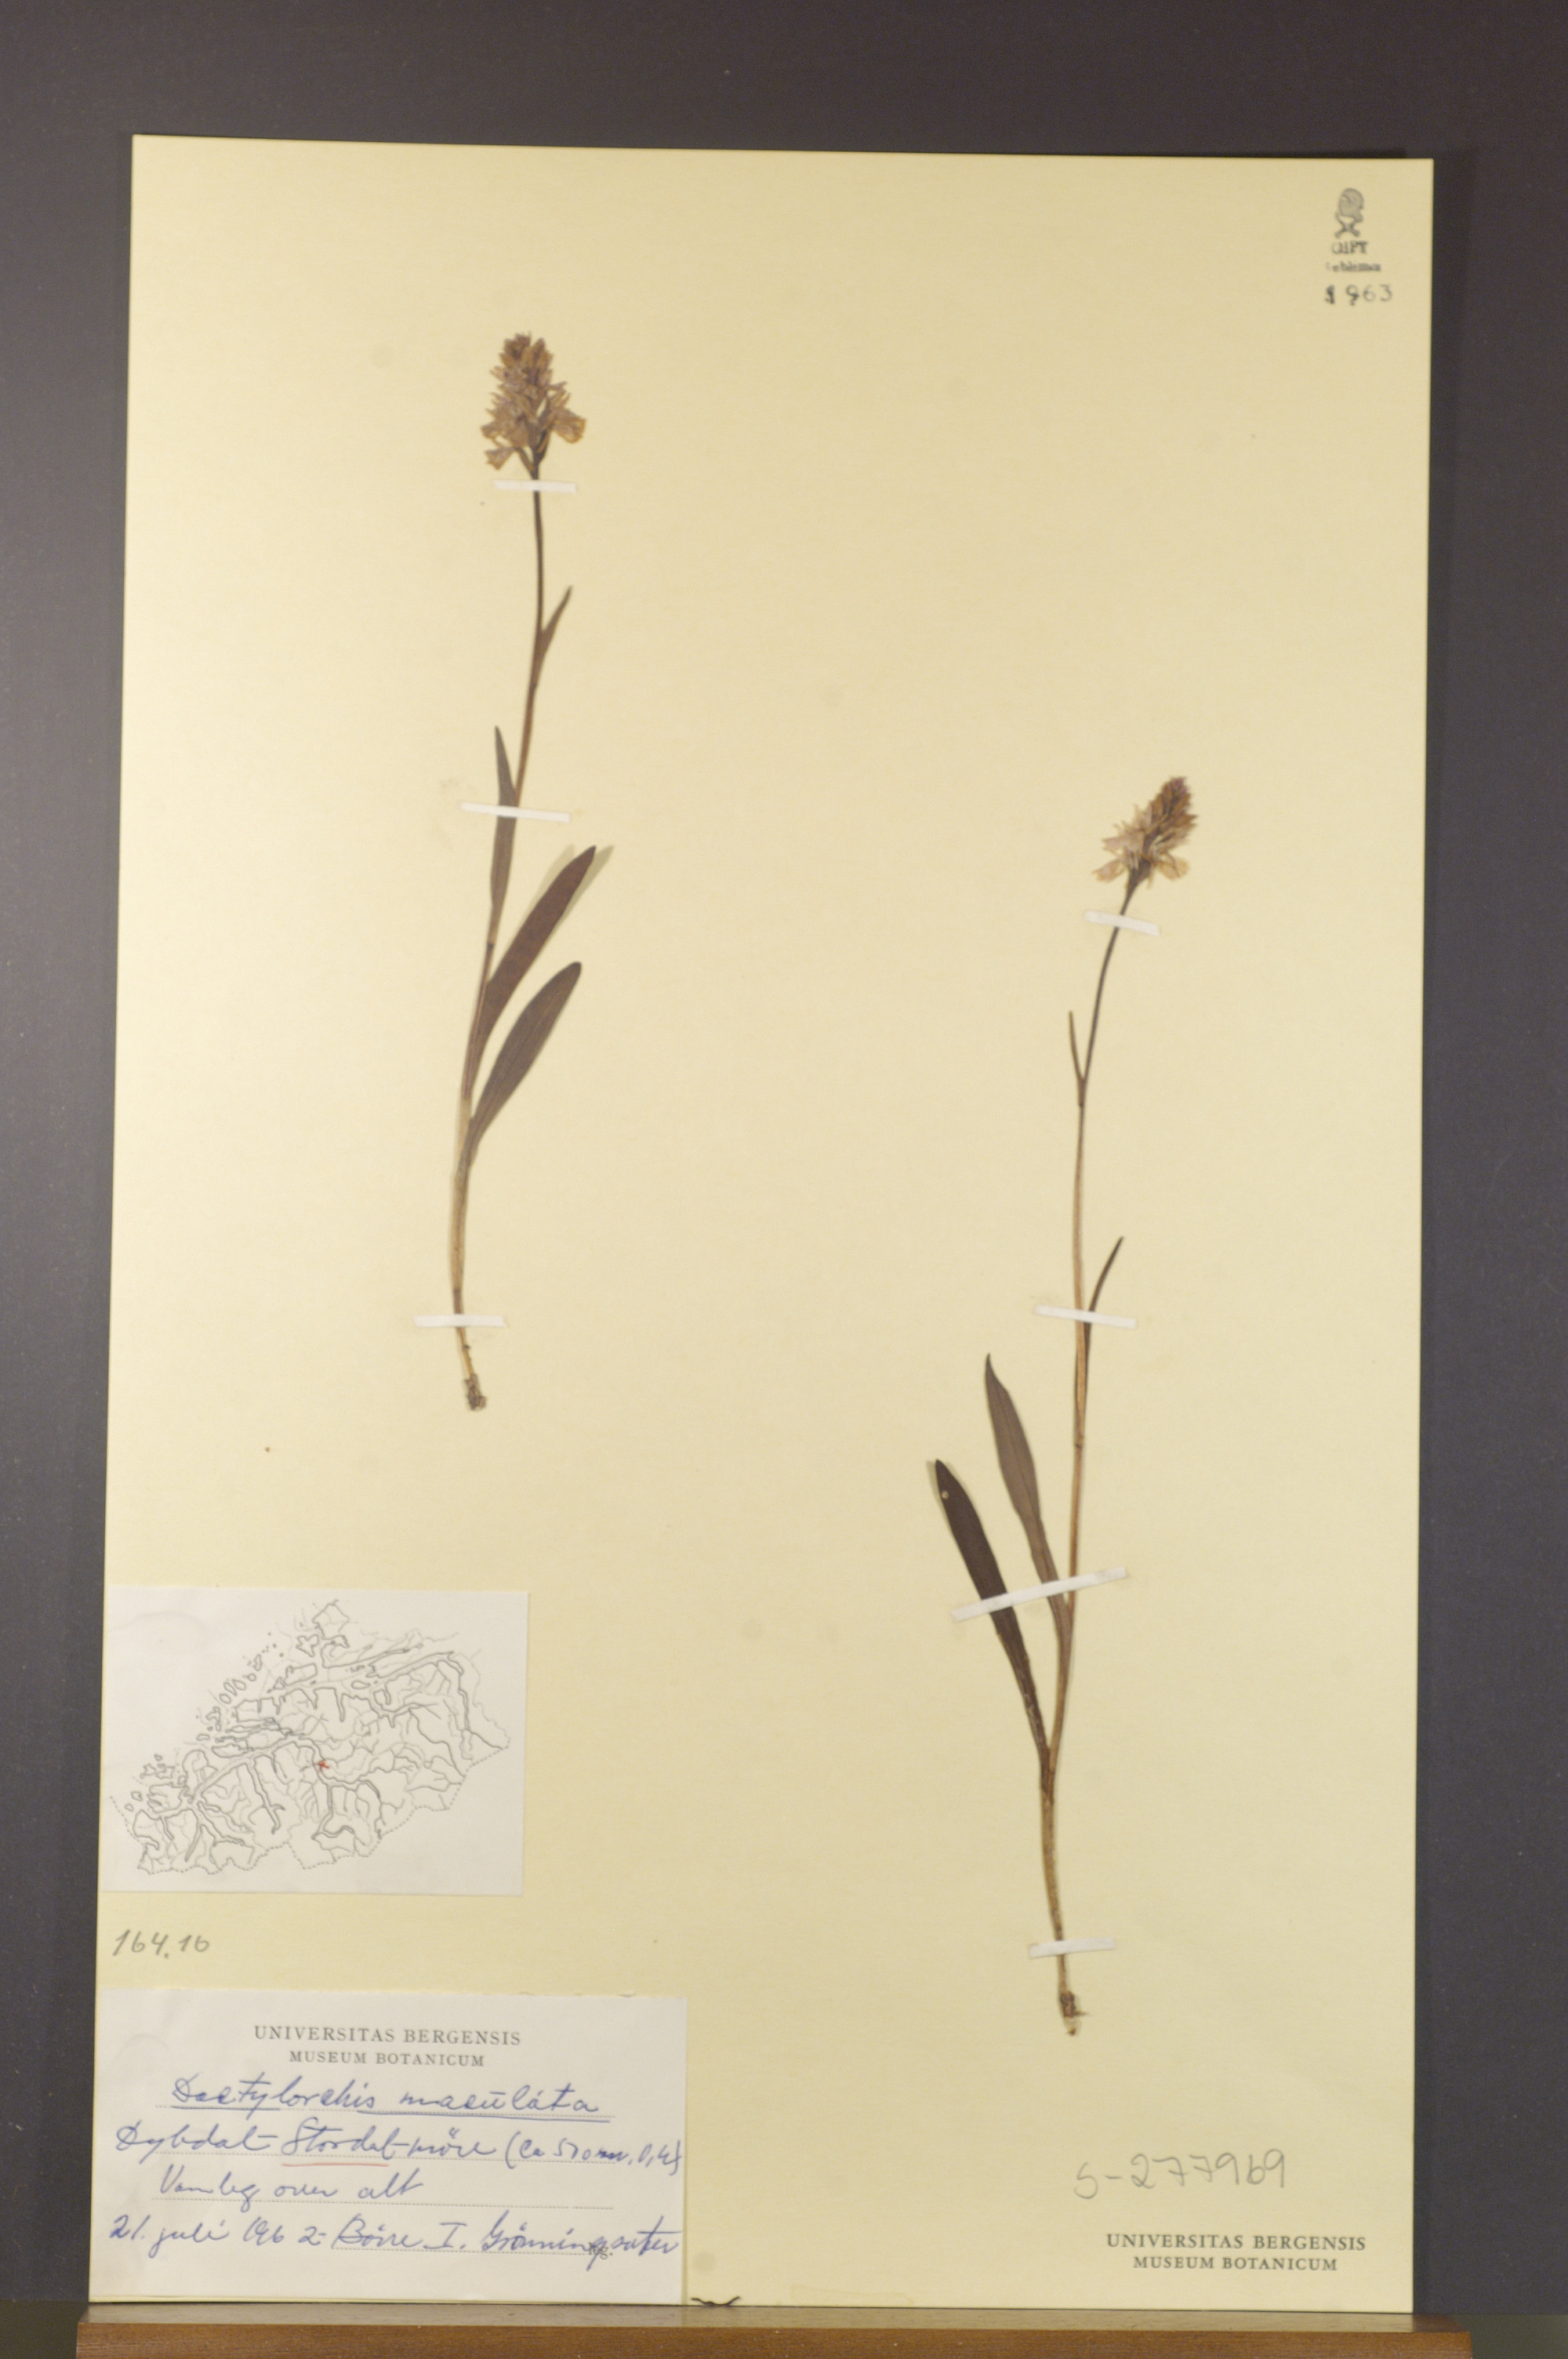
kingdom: Plantae
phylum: Tracheophyta
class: Liliopsida
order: Asparagales
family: Orchidaceae
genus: Dactylorhiza
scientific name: Dactylorhiza maculata
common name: Heath spotted-orchid
